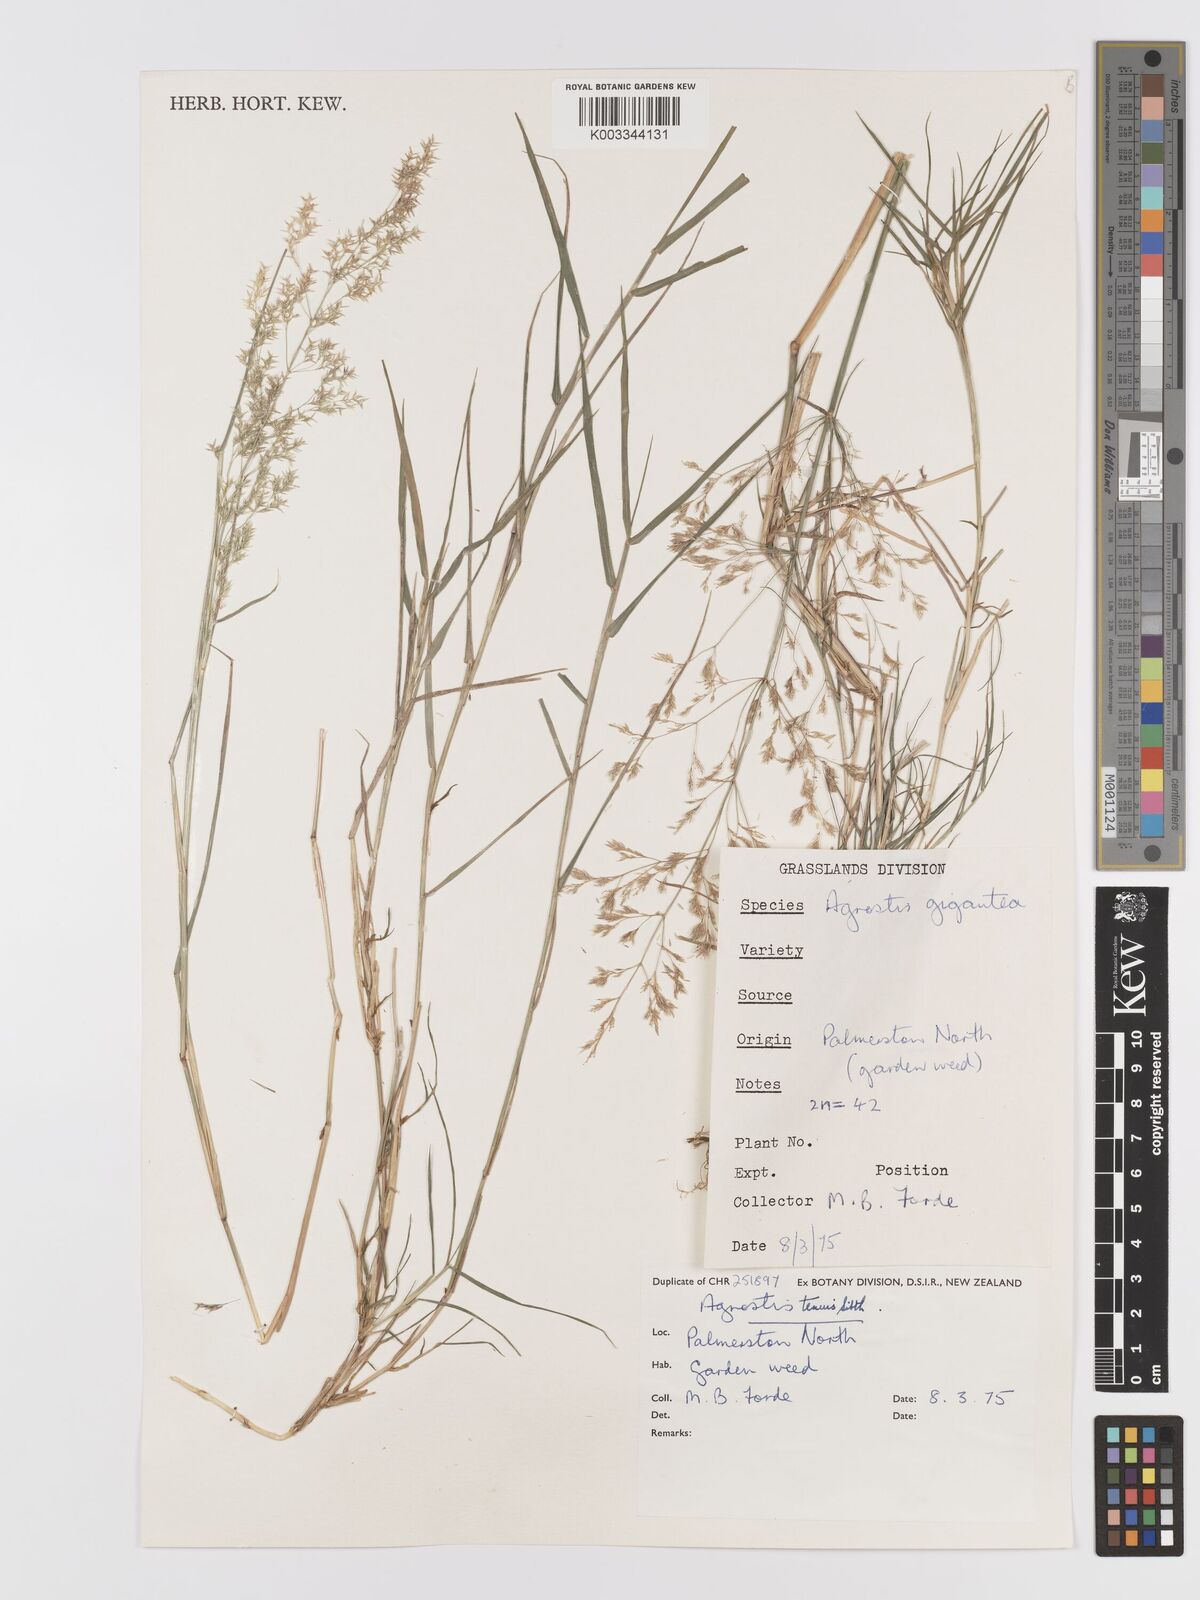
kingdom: Plantae
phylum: Tracheophyta
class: Liliopsida
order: Poales
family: Poaceae
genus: Agrostis
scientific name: Agrostis capillaris
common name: Colonial bentgrass
